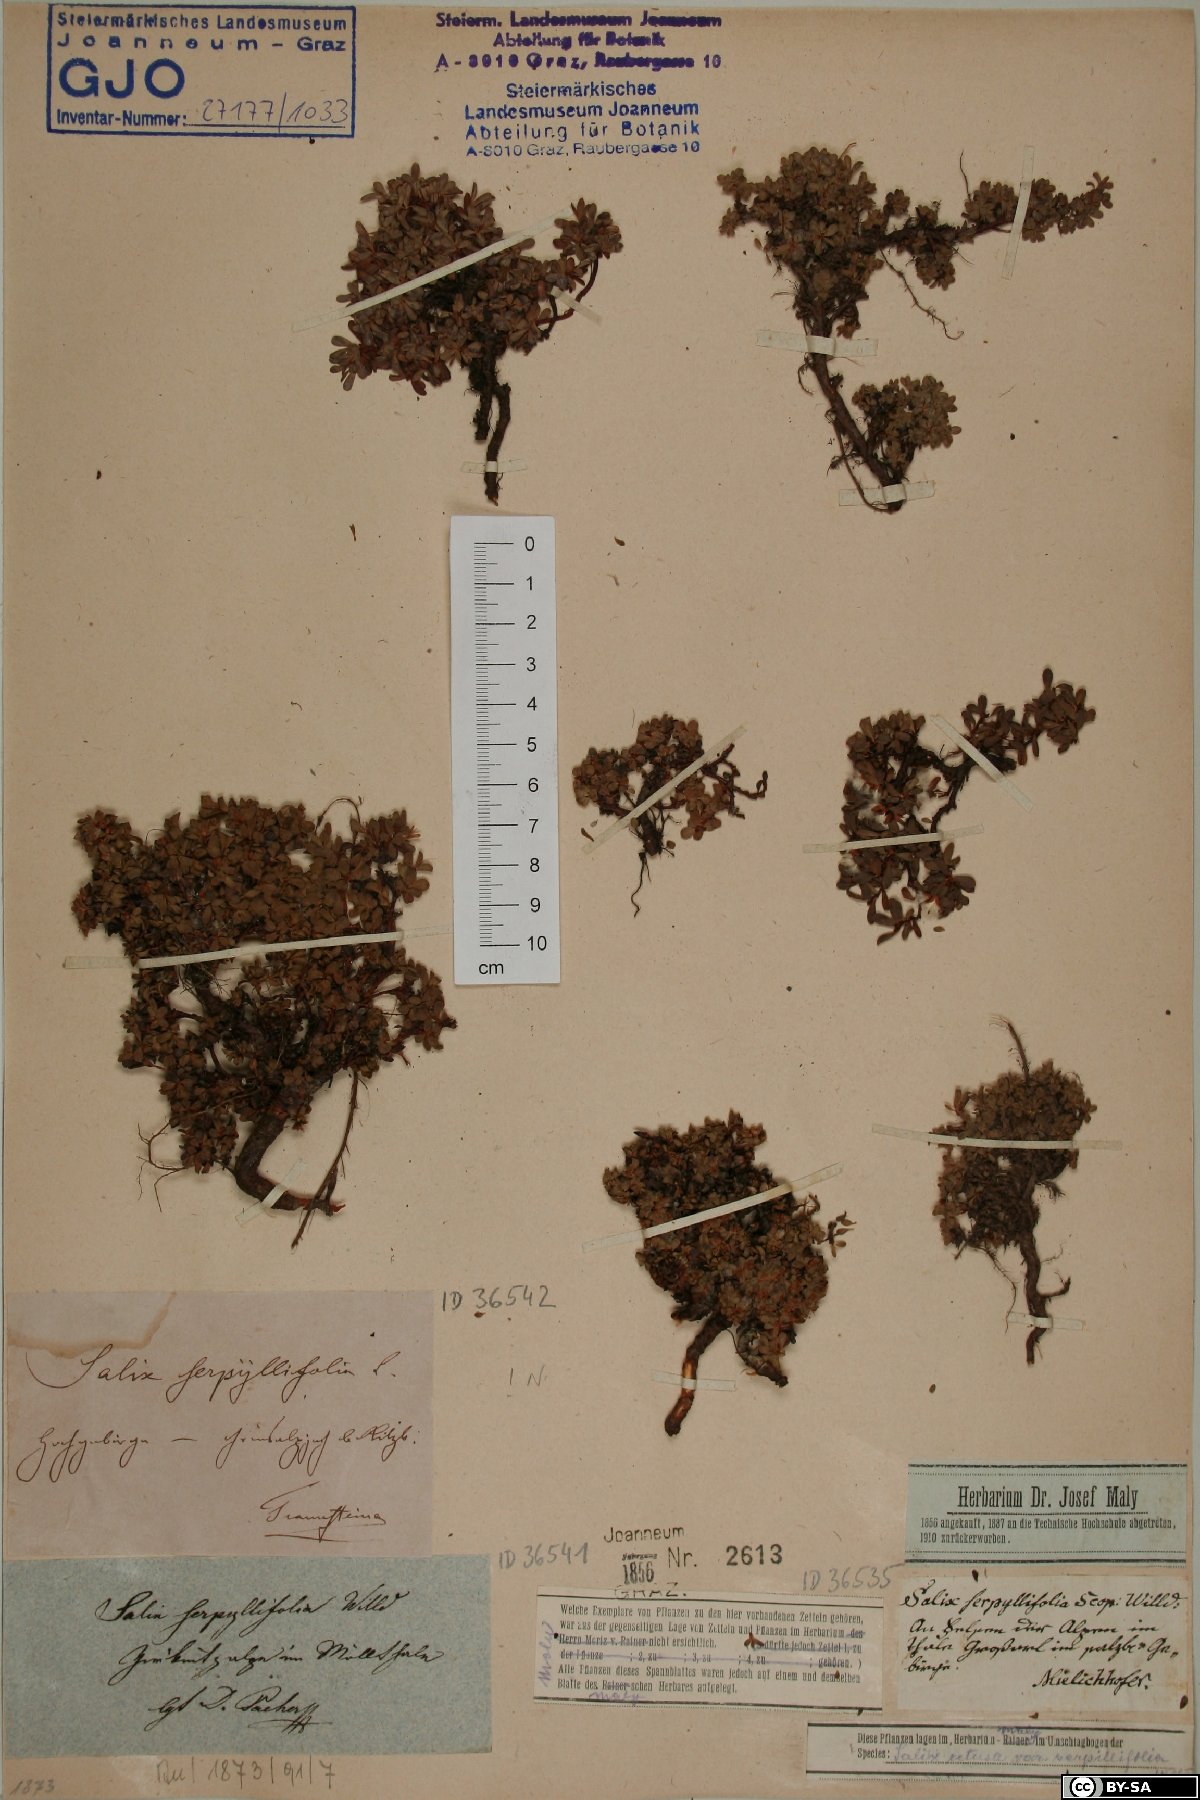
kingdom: Plantae
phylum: Tracheophyta
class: Magnoliopsida
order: Malpighiales
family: Salicaceae
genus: Salix
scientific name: Salix serpillifolia
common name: Thyme-leaf willow
